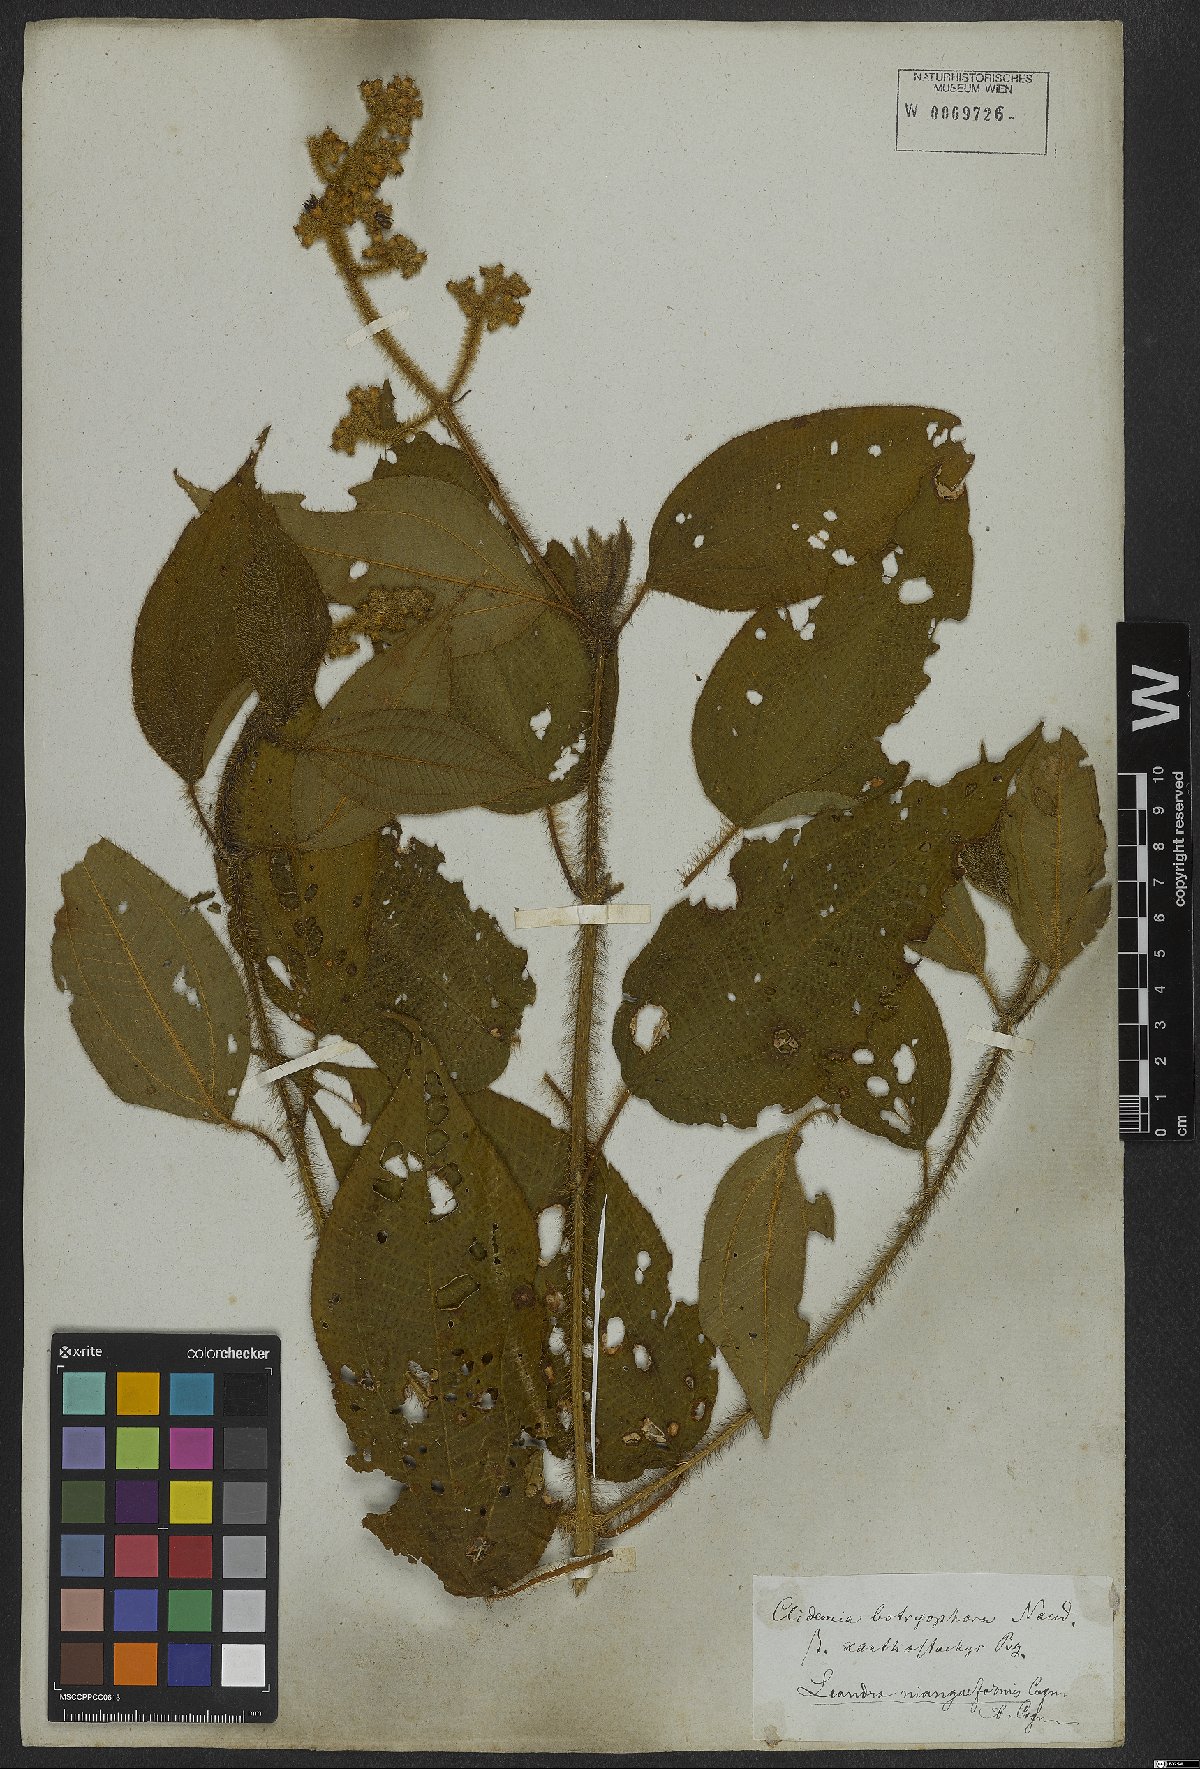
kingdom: Plantae
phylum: Tracheophyta
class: Magnoliopsida
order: Myrtales
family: Melastomataceae
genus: Miconia
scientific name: Miconia niangaeformis
